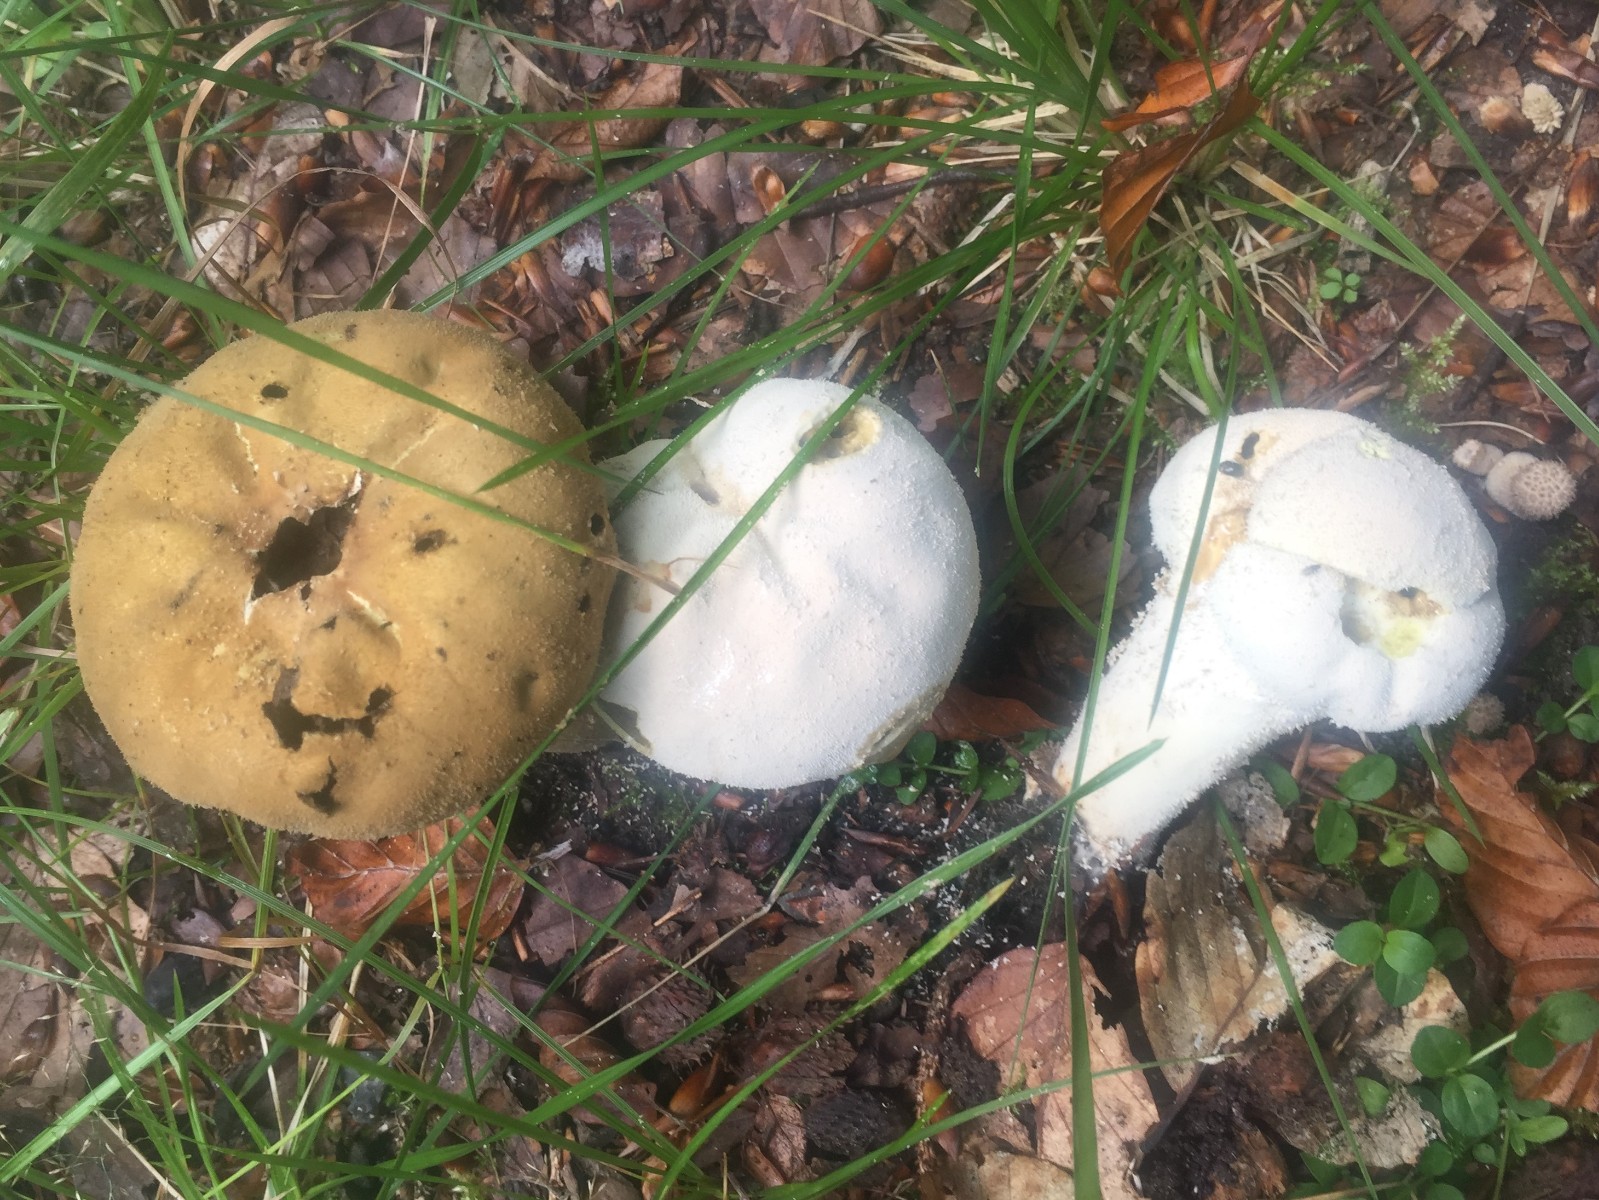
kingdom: Fungi
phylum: Basidiomycota
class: Agaricomycetes
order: Agaricales
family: Lycoperdaceae
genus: Lycoperdon
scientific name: Lycoperdon excipuliforme
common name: højstokket støvbold
